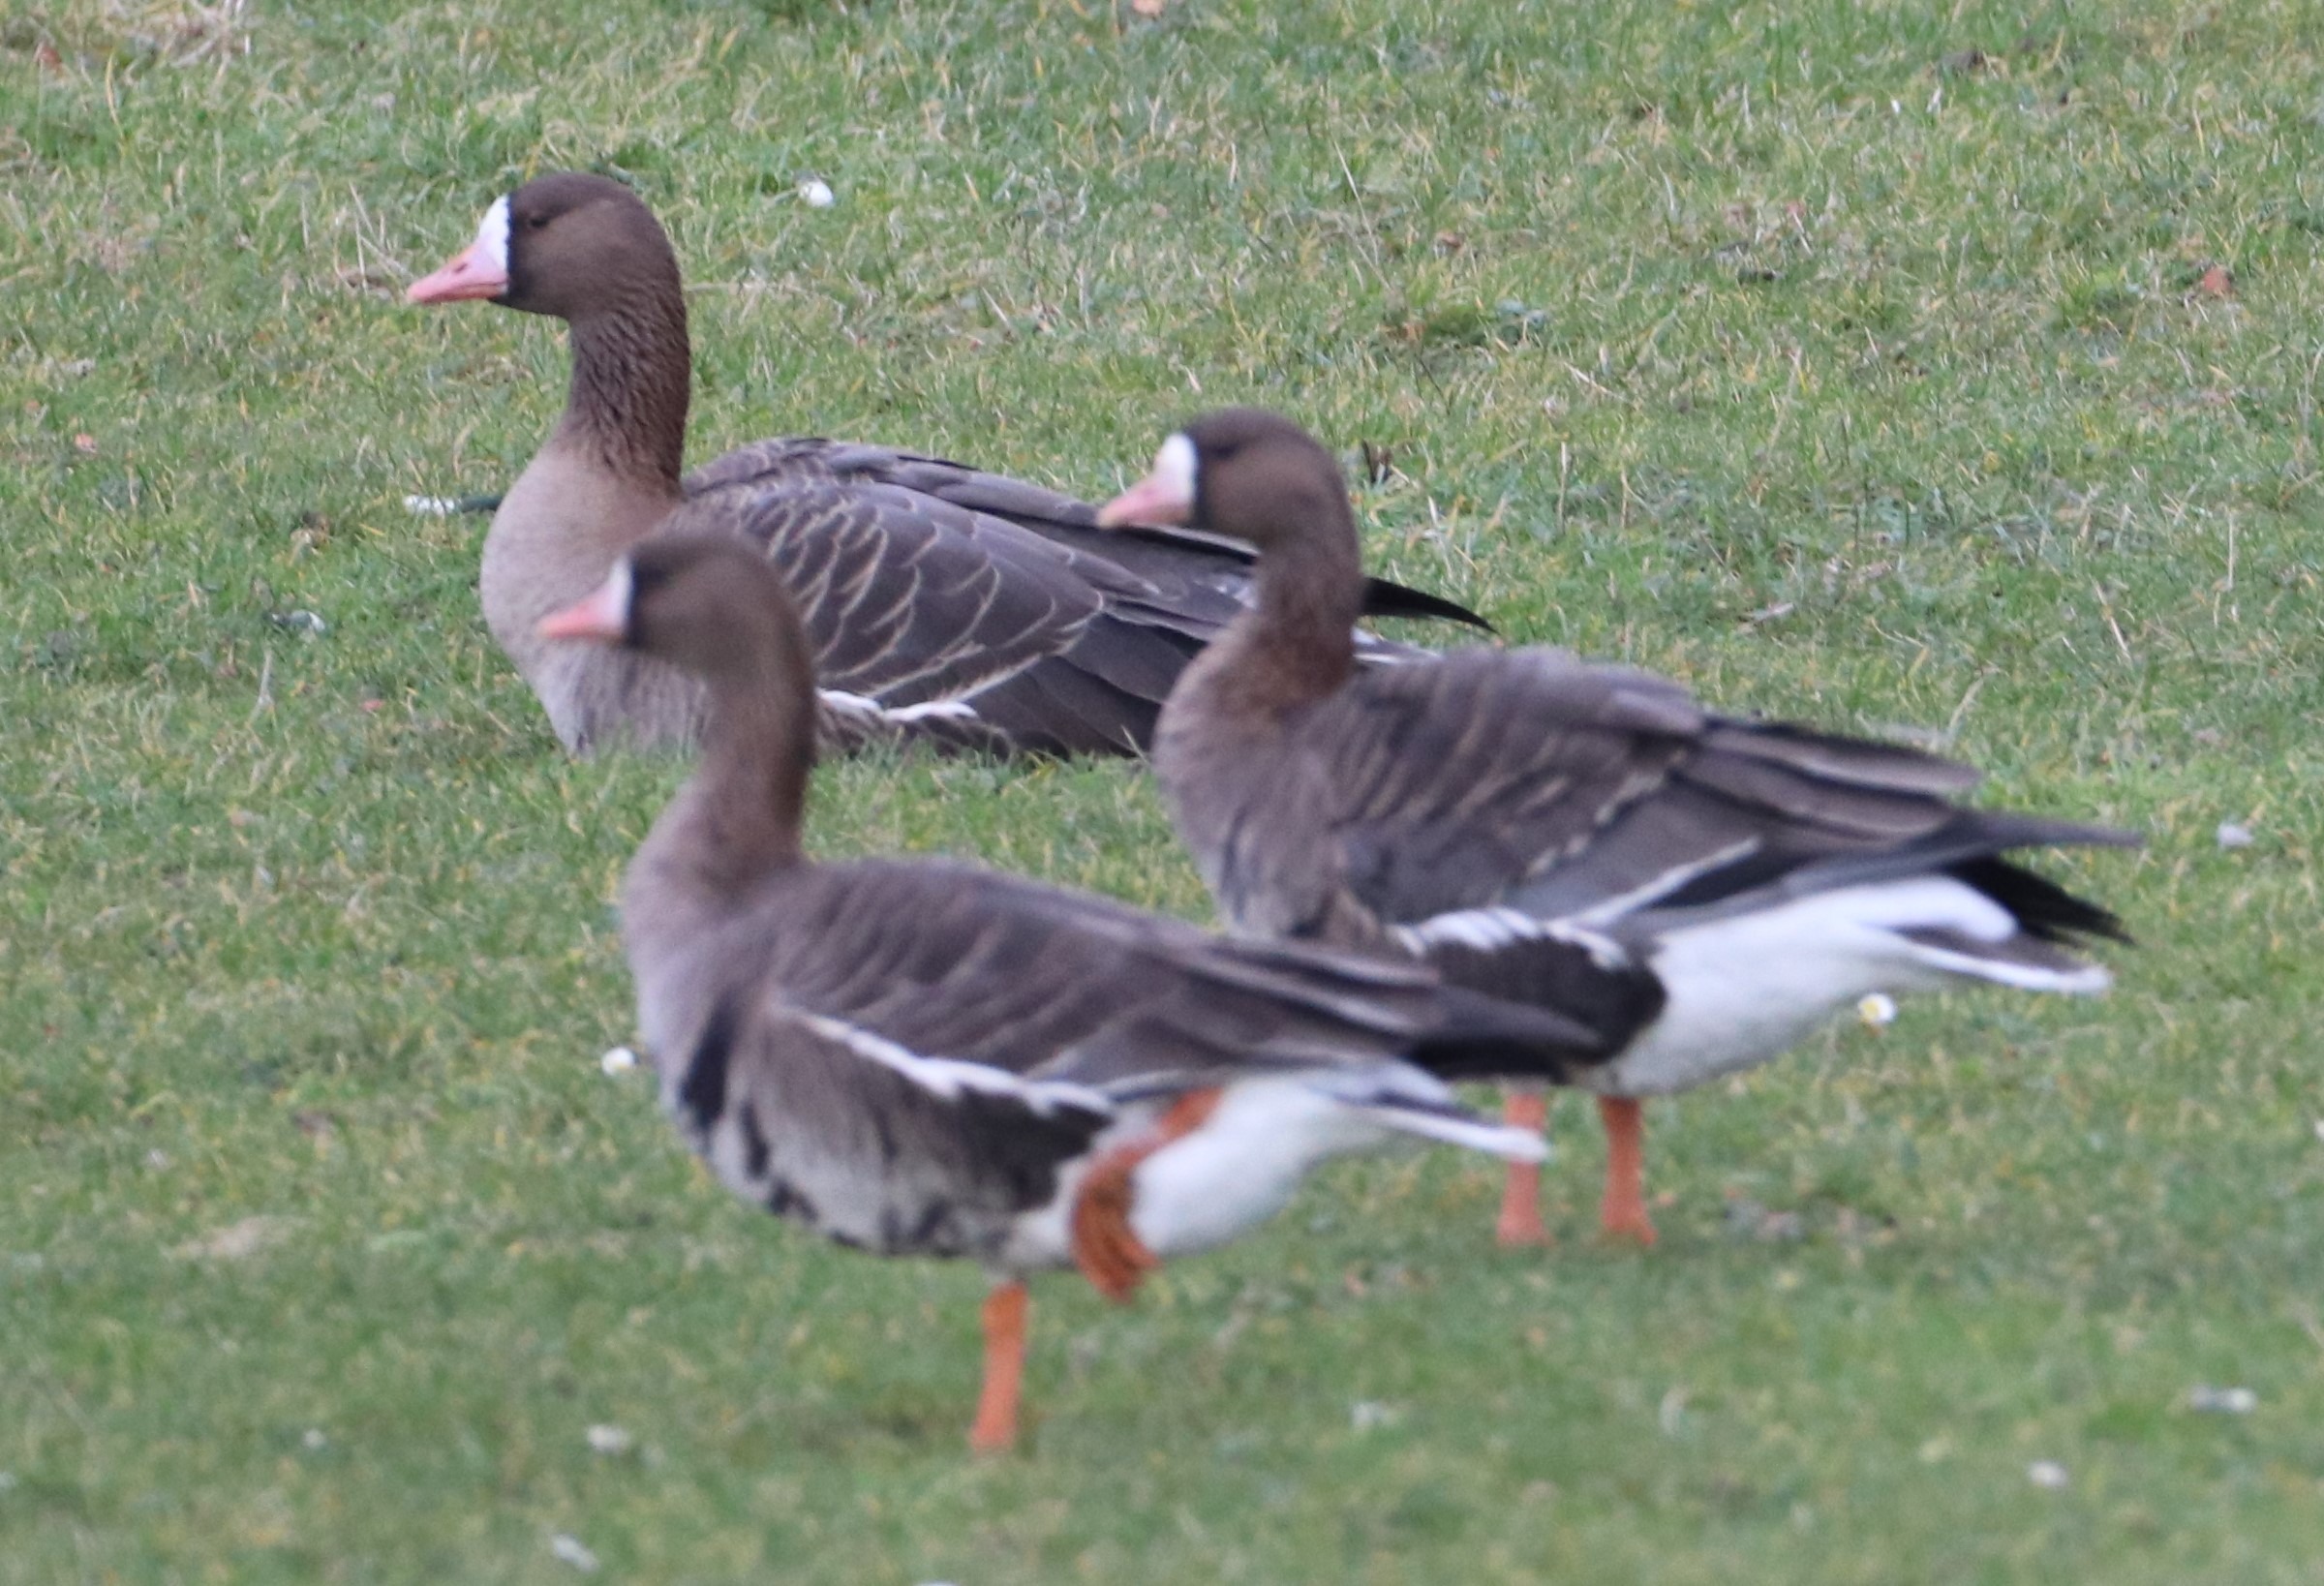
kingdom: Animalia
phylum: Chordata
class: Aves
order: Anseriformes
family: Anatidae
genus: Anser
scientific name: Anser albifrons
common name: Blisgås
